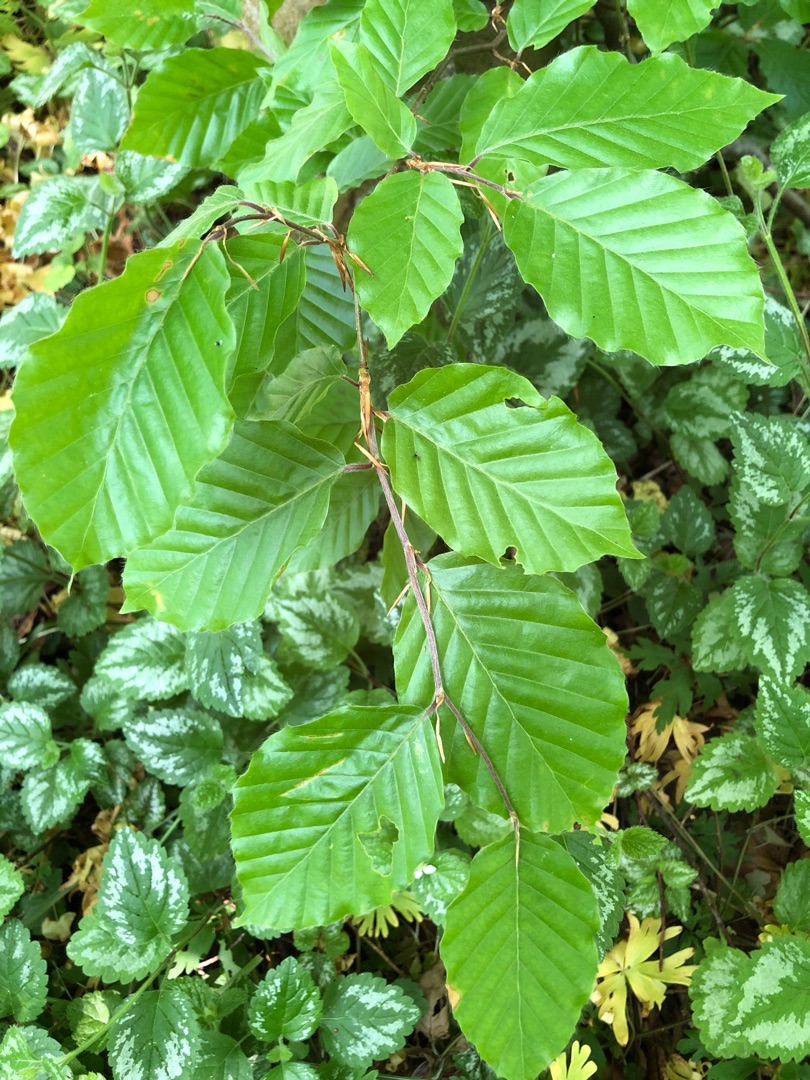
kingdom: Plantae
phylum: Tracheophyta
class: Magnoliopsida
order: Fagales
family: Fagaceae
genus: Fagus
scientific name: Fagus sylvatica
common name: Bøg
